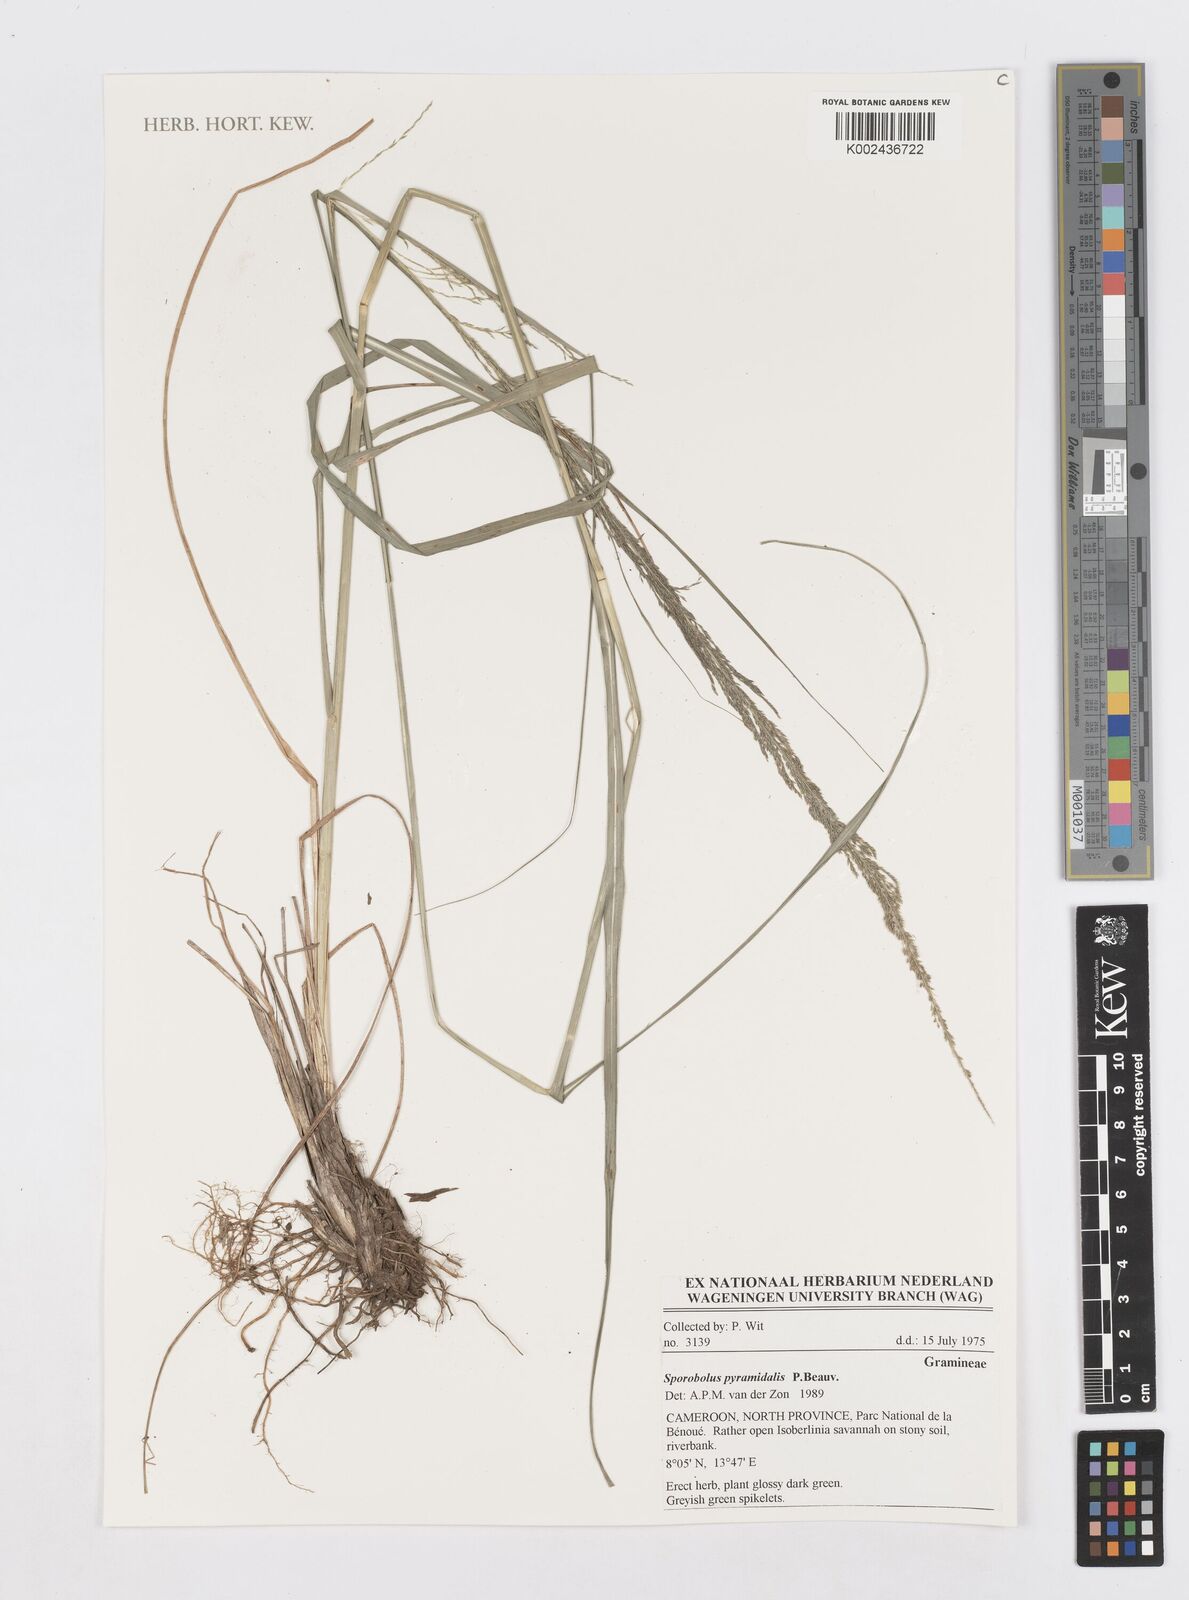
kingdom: Plantae
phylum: Tracheophyta
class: Liliopsida
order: Poales
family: Poaceae
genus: Sporobolus
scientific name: Sporobolus pyramidalis
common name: West indian dropseed
